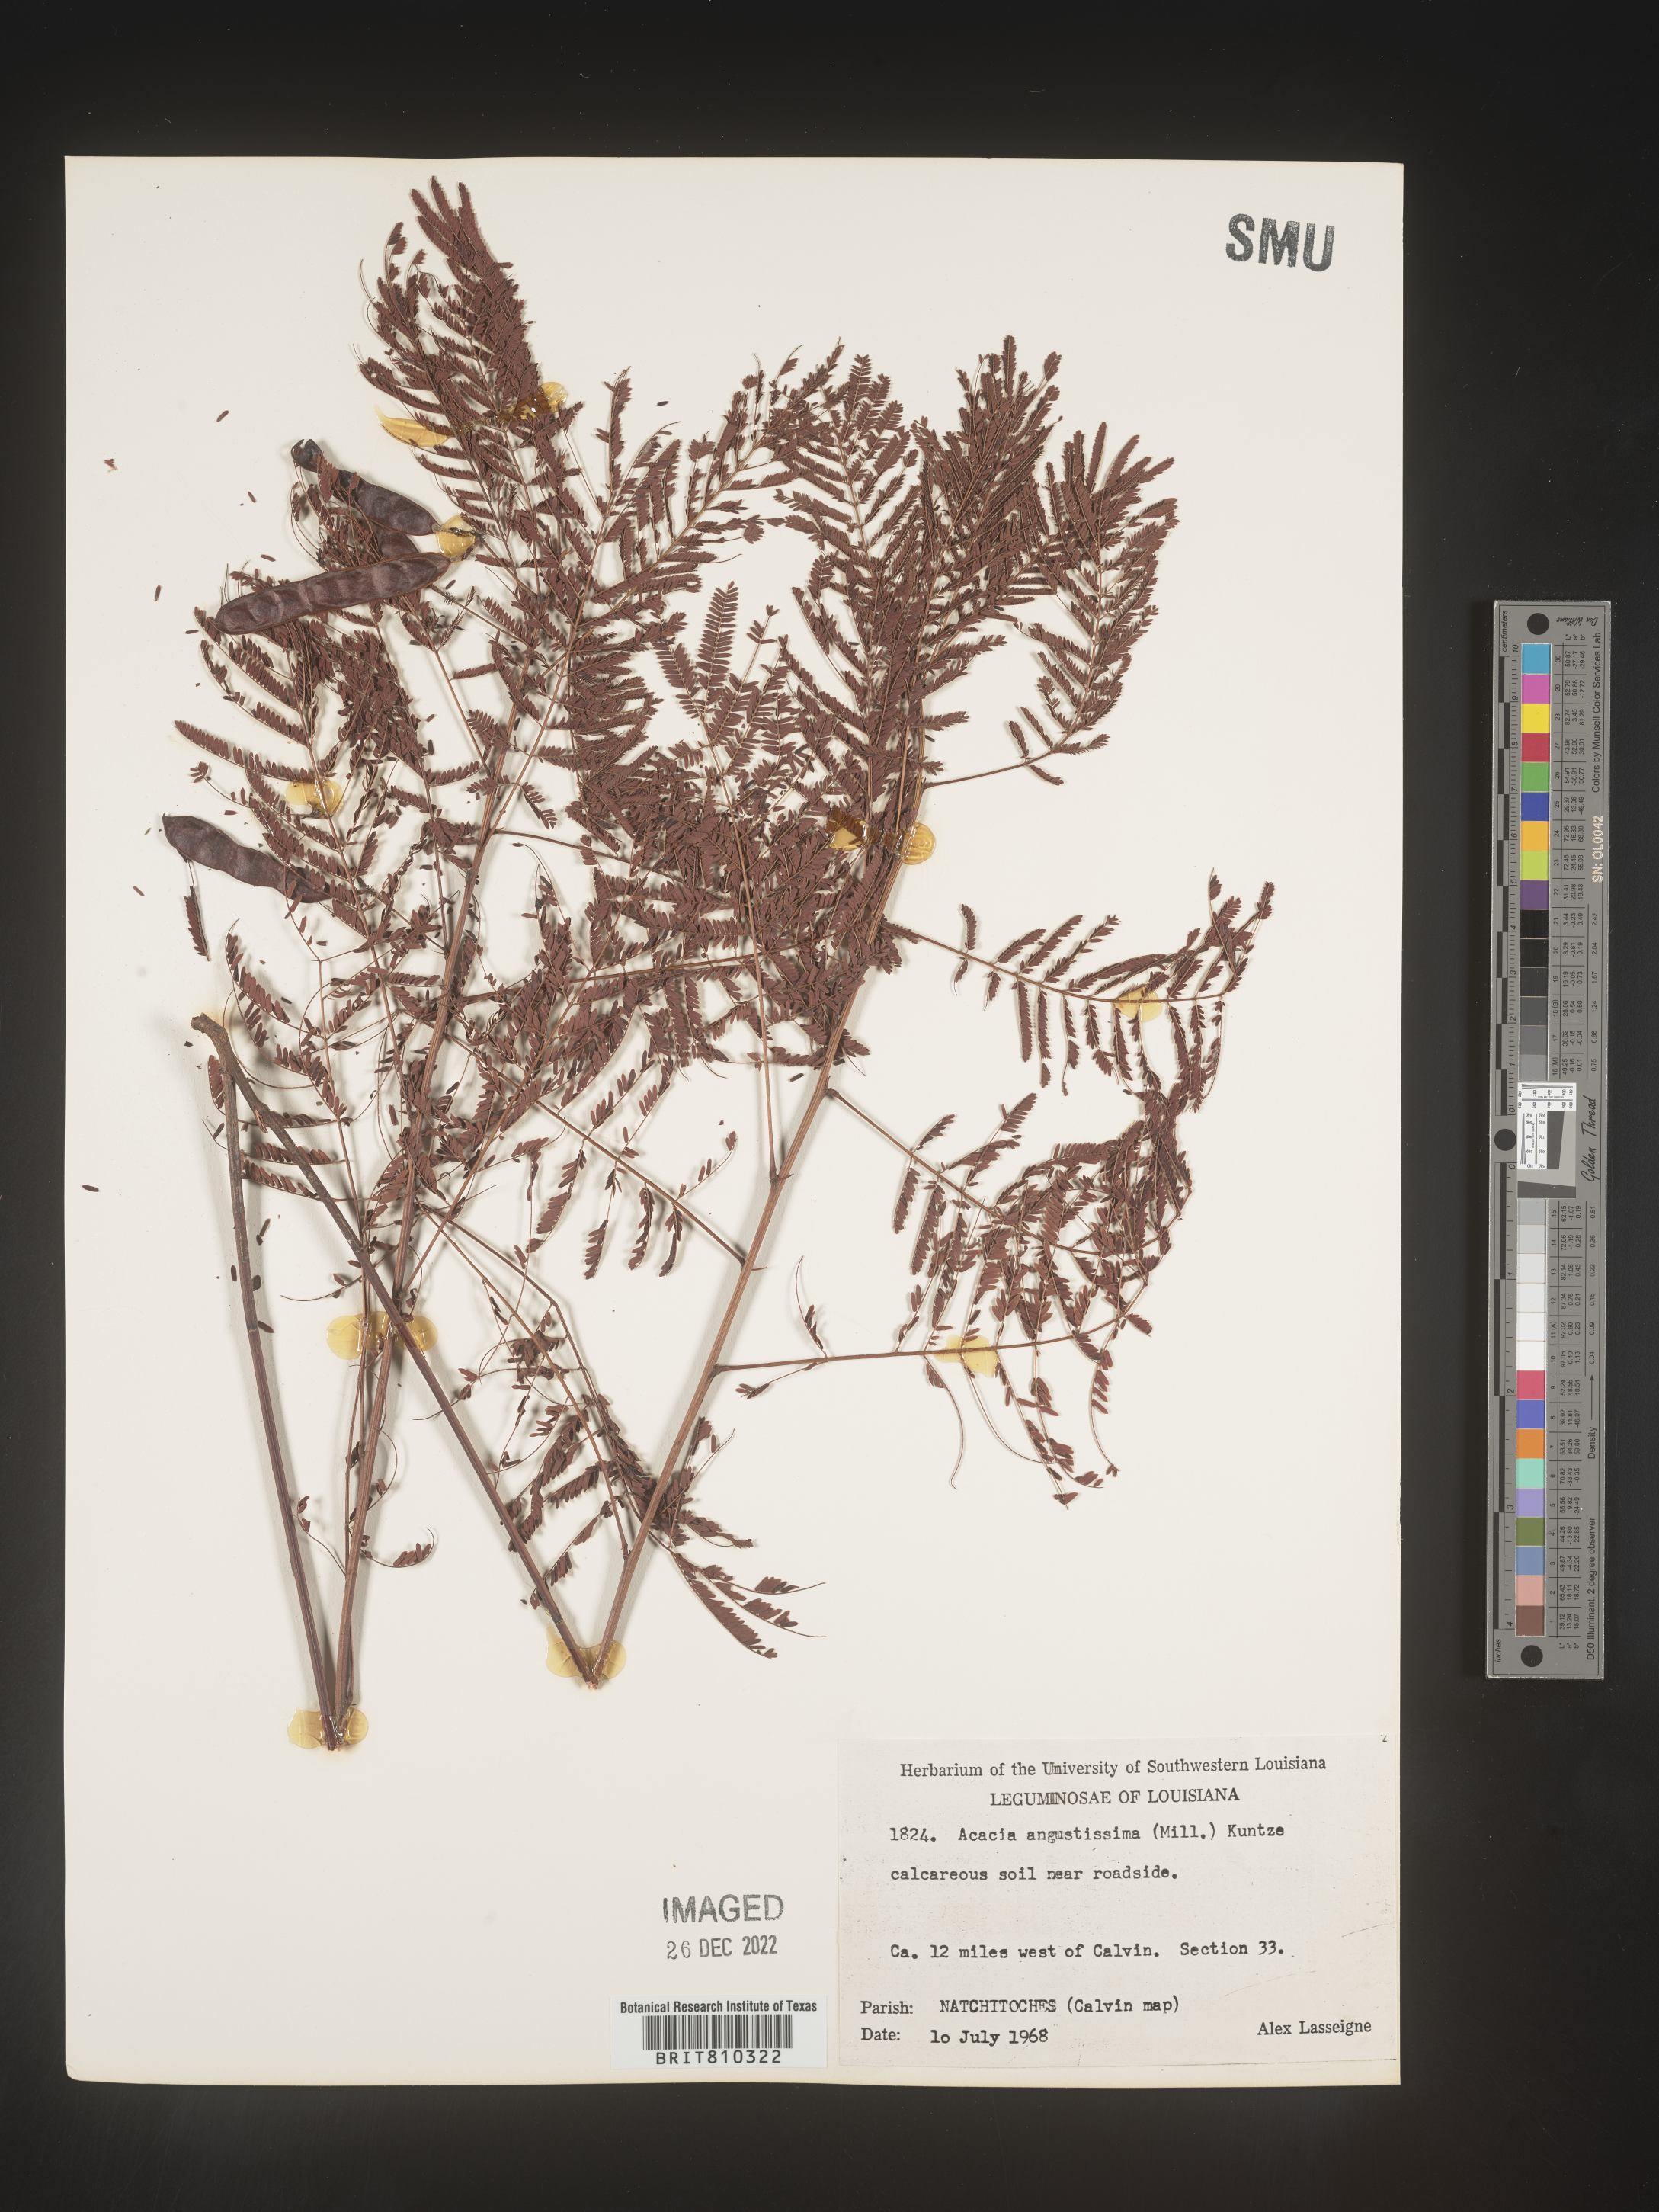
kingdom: Plantae
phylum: Tracheophyta
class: Magnoliopsida
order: Fabales
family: Fabaceae
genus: Acaciella
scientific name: Acaciella angustissima
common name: Prairie acacia
